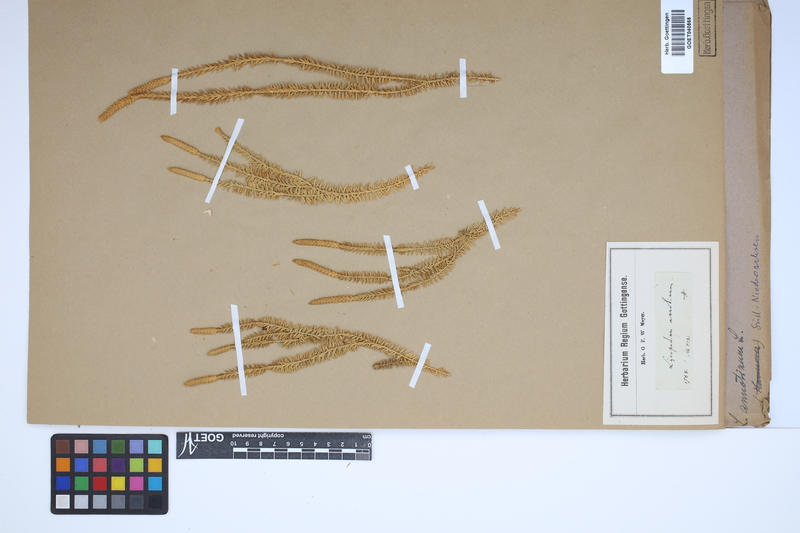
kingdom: Plantae
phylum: Tracheophyta
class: Lycopodiopsida
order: Lycopodiales
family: Lycopodiaceae
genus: Spinulum
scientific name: Spinulum annotinum
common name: Interrupted club-moss
